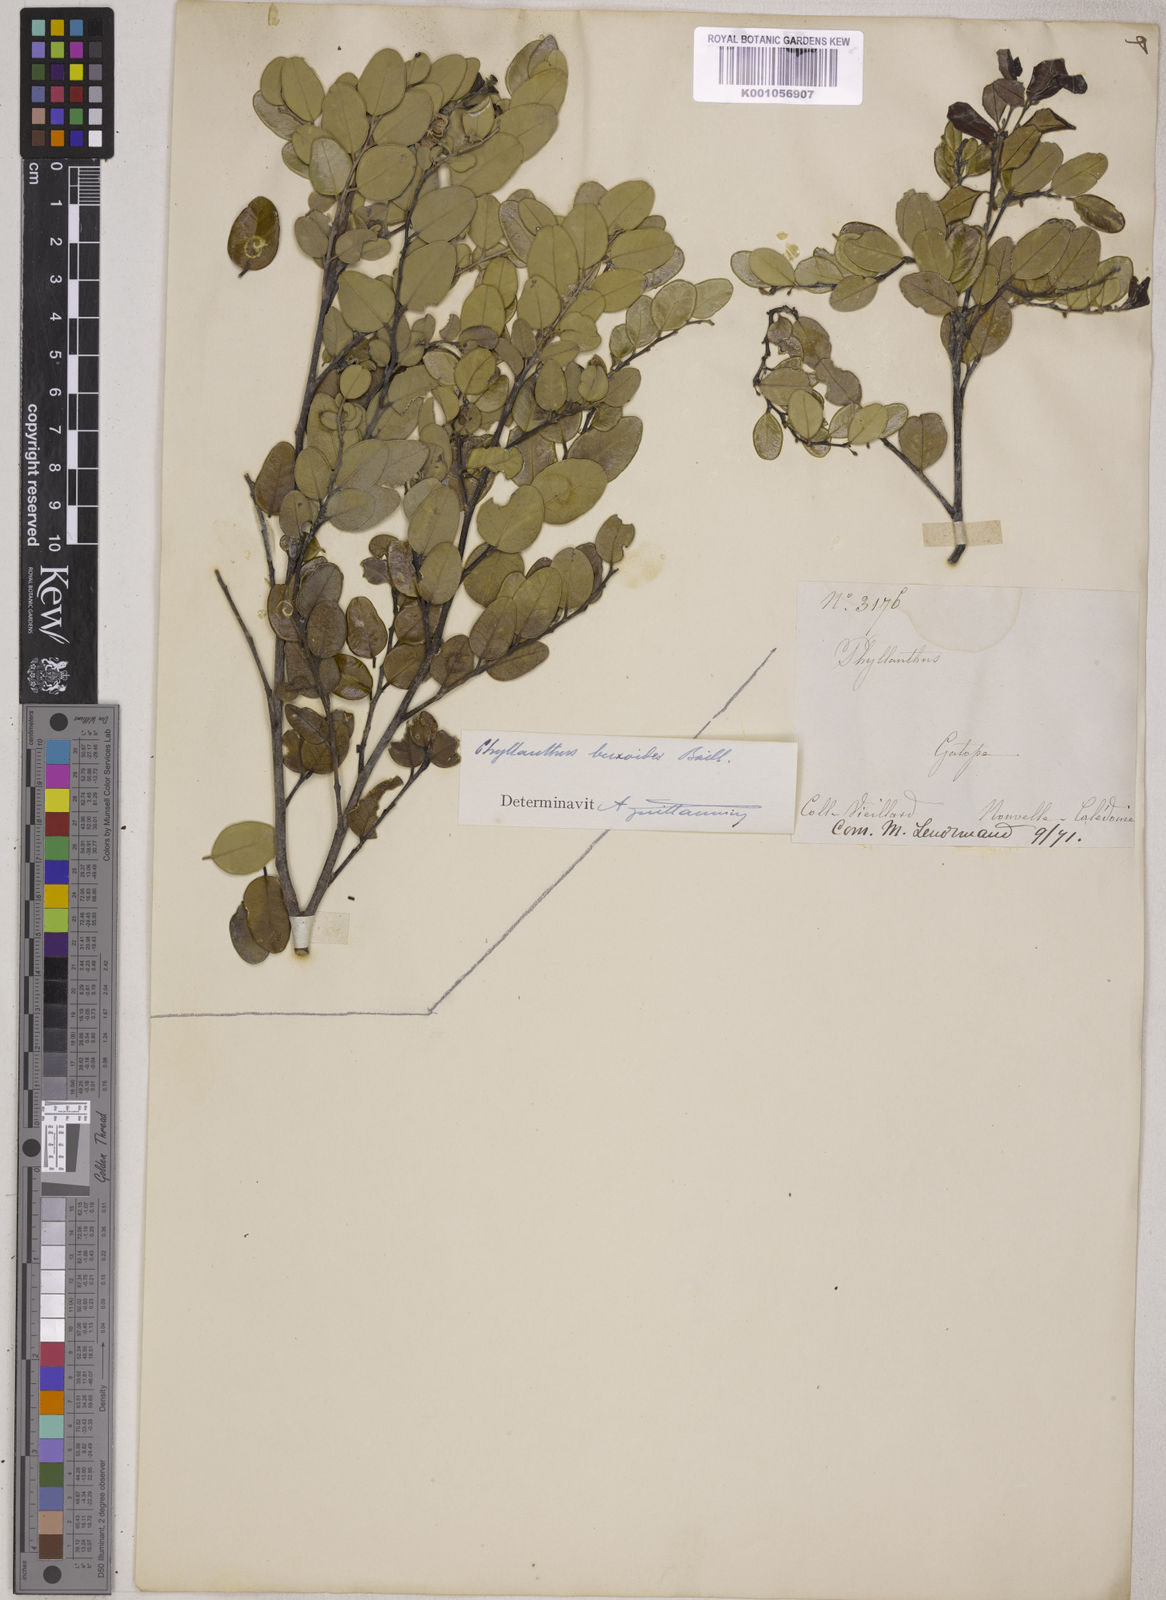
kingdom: Plantae
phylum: Tracheophyta
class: Magnoliopsida
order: Malpighiales
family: Phyllanthaceae
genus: Phyllanthus
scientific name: Phyllanthus buxoides
